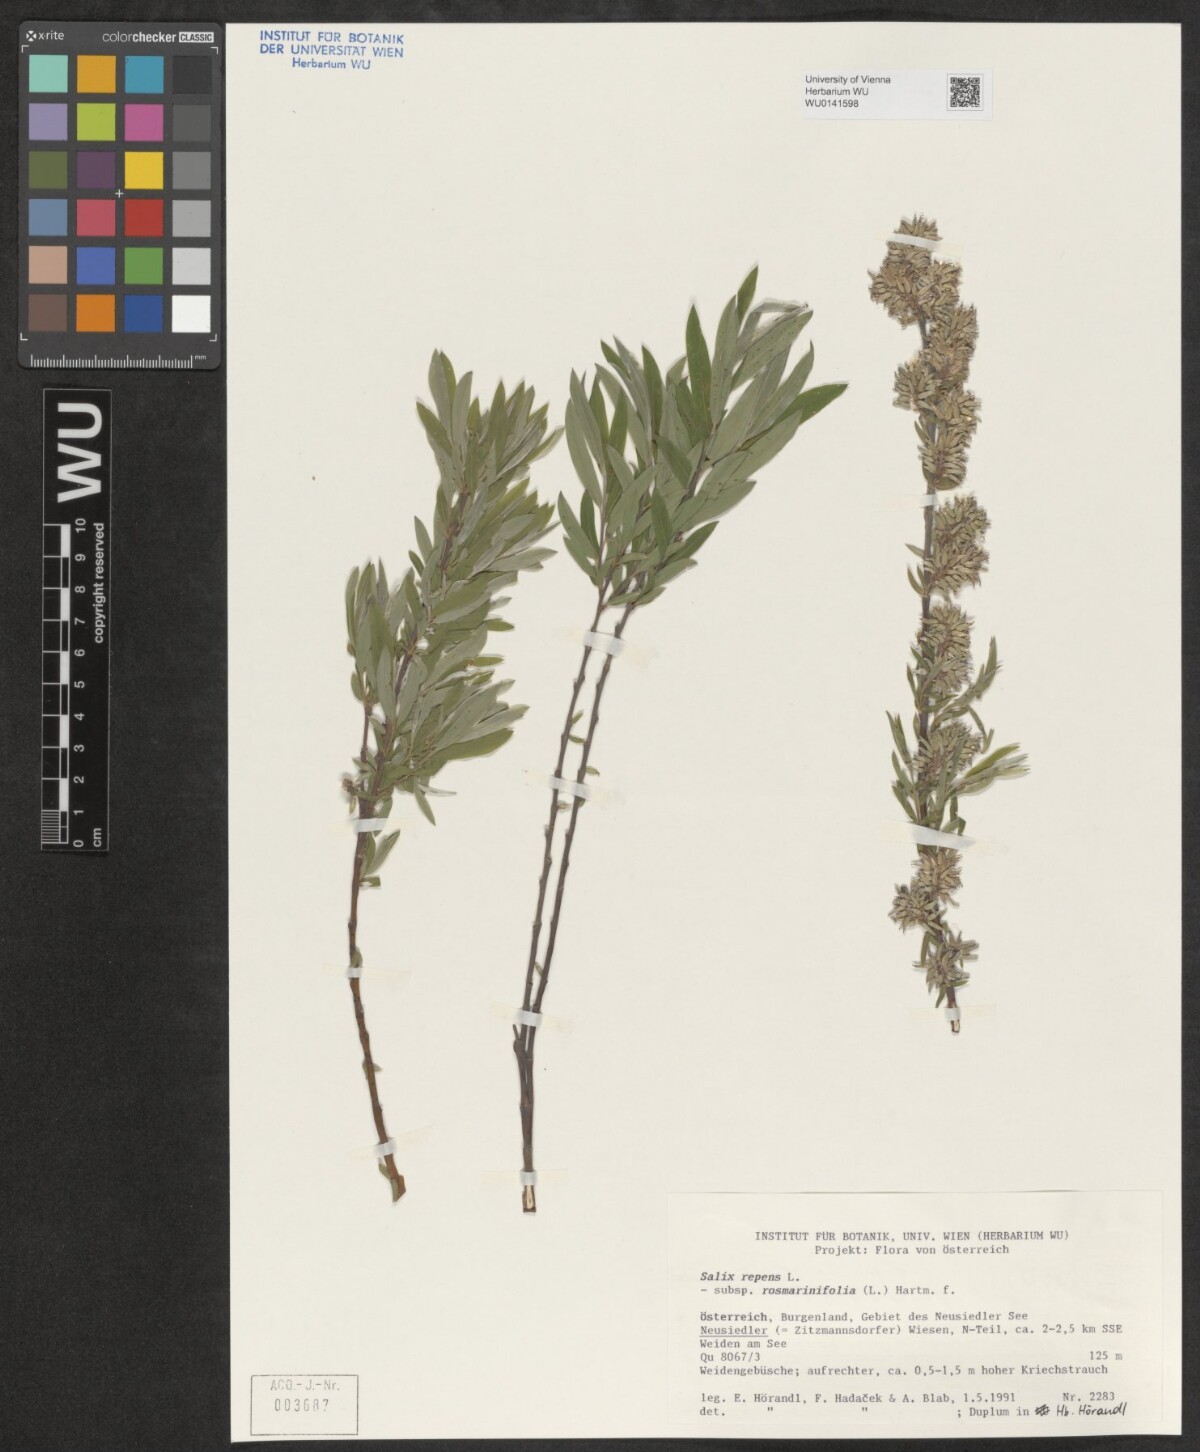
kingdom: Plantae
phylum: Tracheophyta
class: Magnoliopsida
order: Malpighiales
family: Salicaceae
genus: Salix
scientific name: Salix repens
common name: Creeping willow
